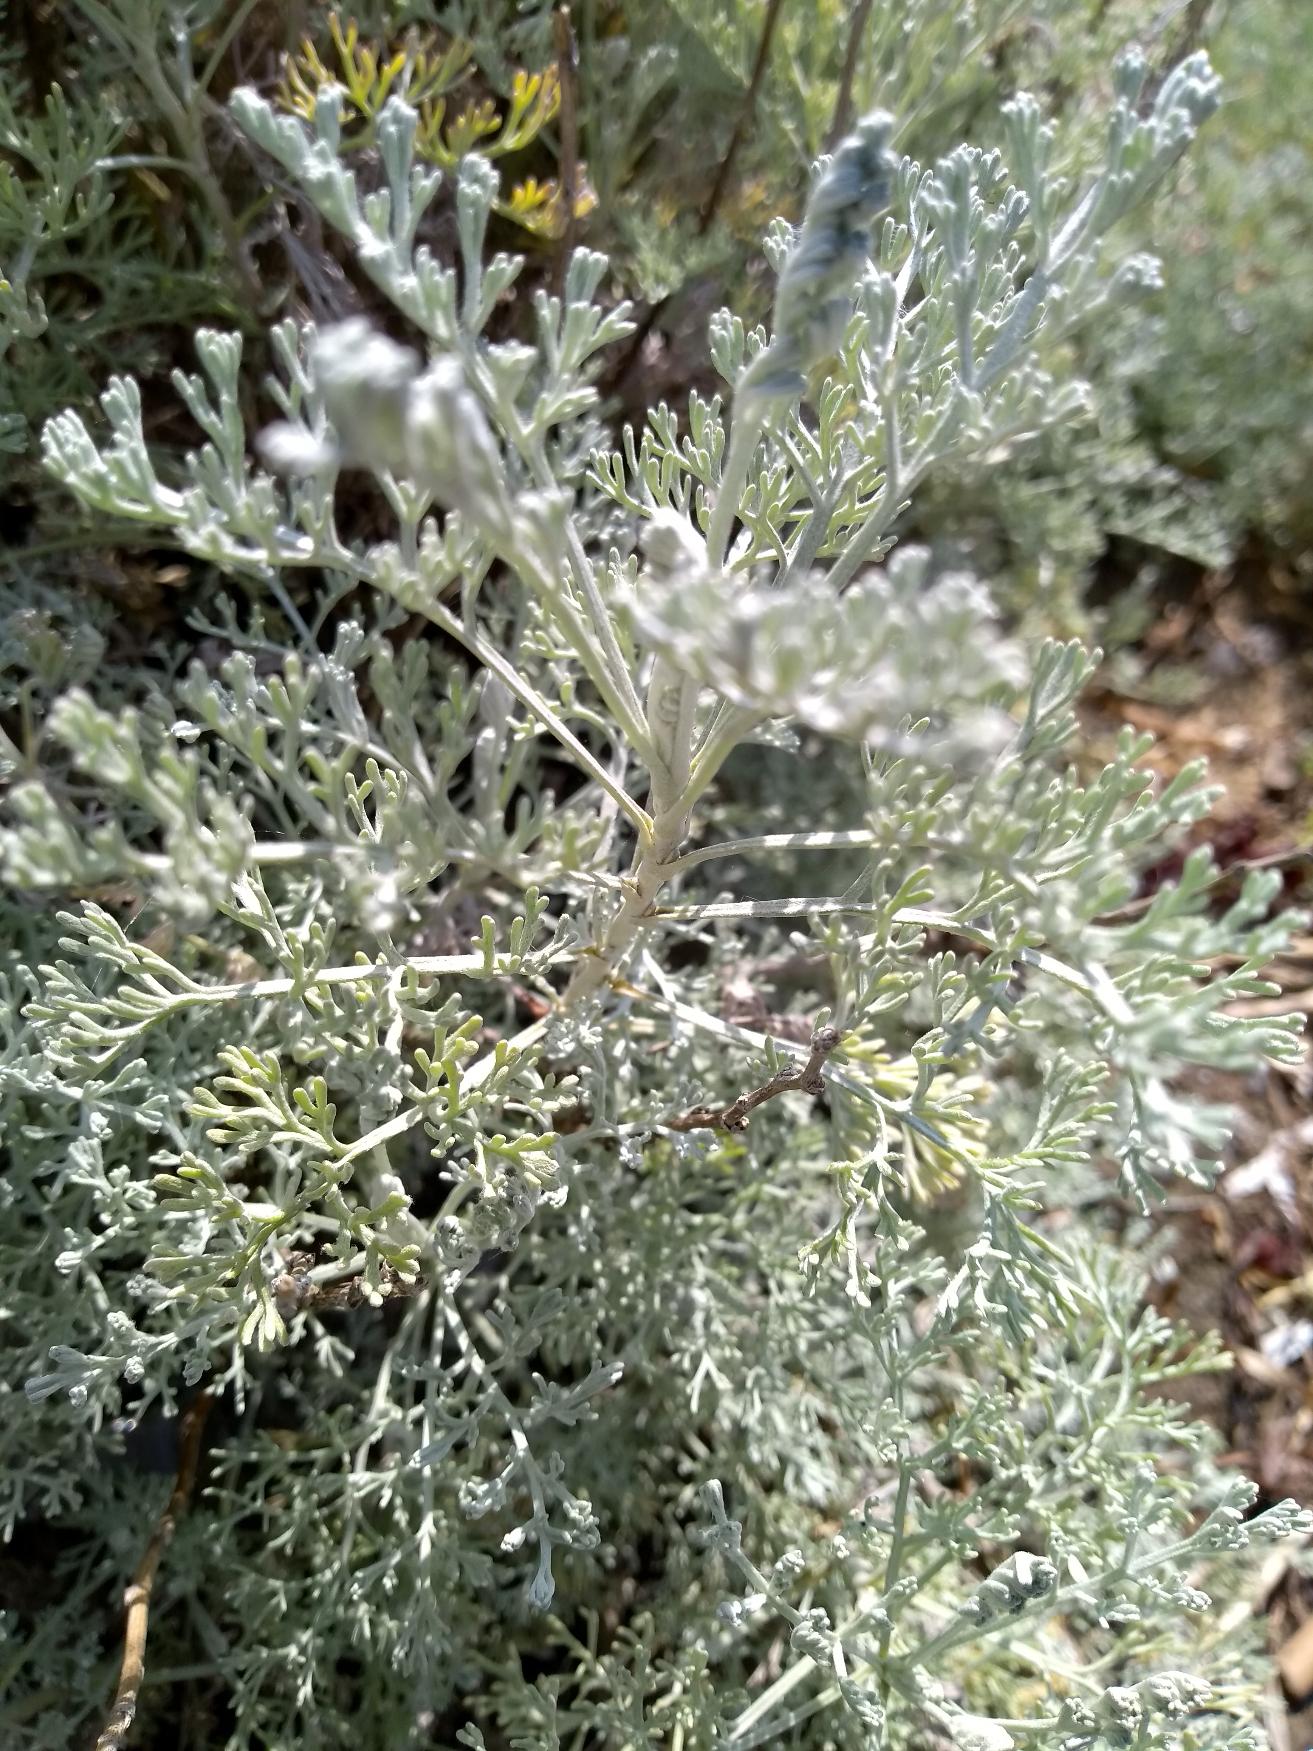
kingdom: Plantae
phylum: Tracheophyta
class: Magnoliopsida
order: Asterales
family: Asteraceae
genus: Artemisia
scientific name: Artemisia maritima
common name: Strandmalurt
